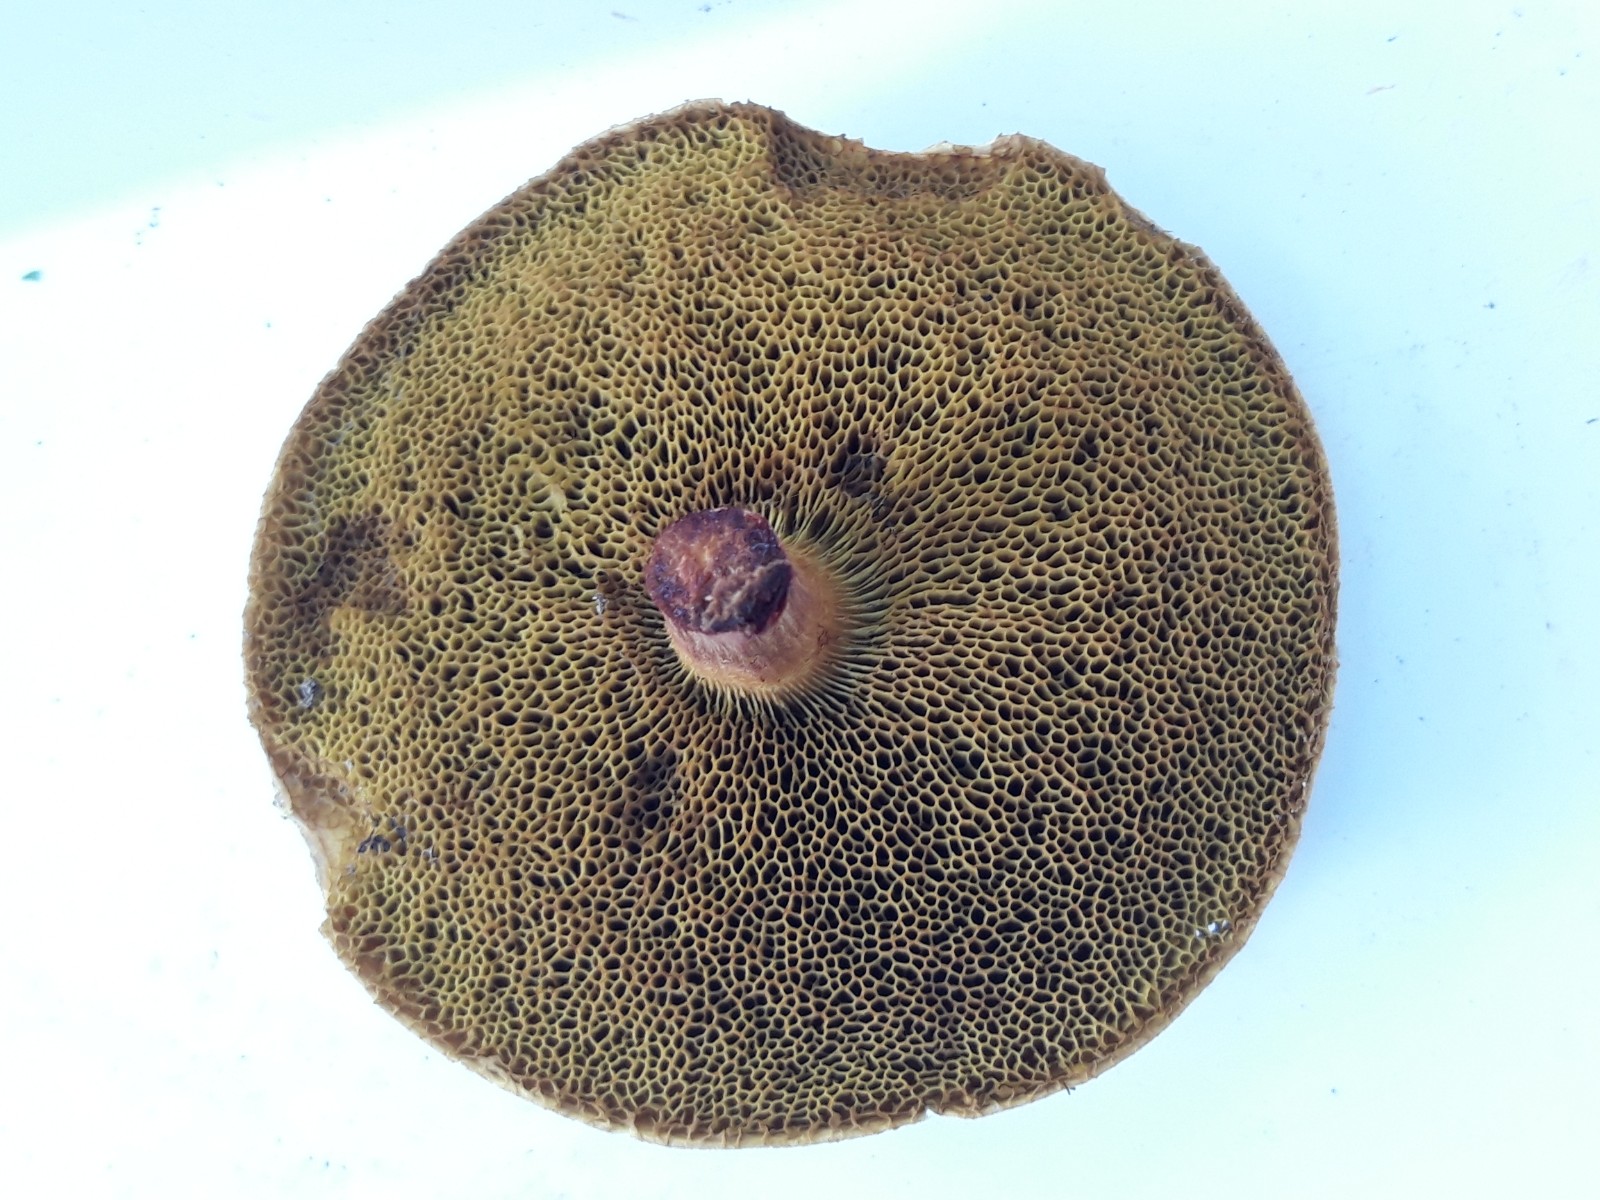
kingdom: Fungi
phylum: Basidiomycota
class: Agaricomycetes
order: Boletales
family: Boletaceae
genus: Xerocomellus
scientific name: Xerocomellus chrysenteron
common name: rødsprukken rørhat
